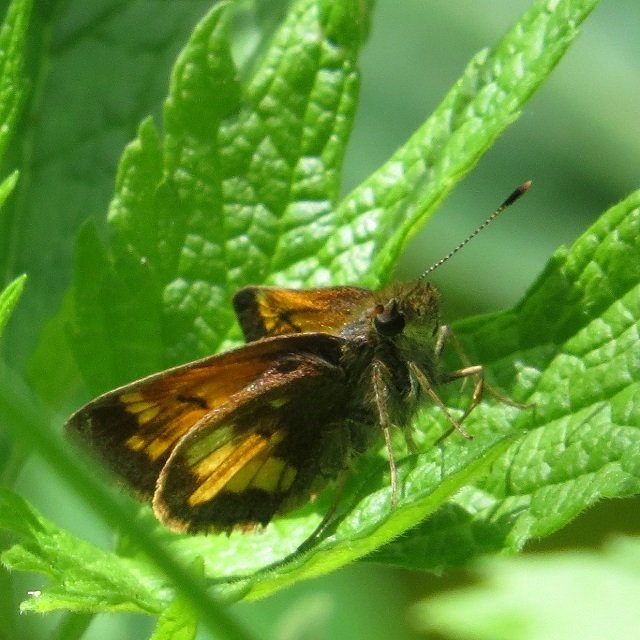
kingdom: Animalia
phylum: Arthropoda
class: Insecta
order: Lepidoptera
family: Hesperiidae
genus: Lon
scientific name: Lon hobomok
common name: Hobomok Skipper
